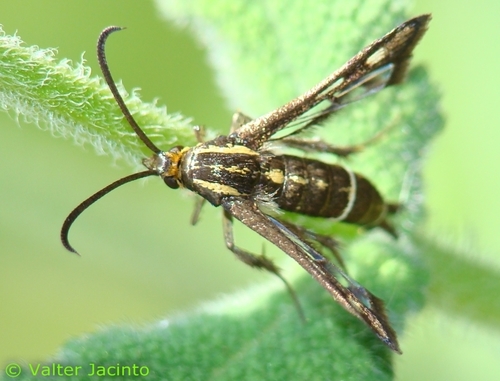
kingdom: Animalia
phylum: Arthropoda
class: Insecta
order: Lepidoptera
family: Sesiidae
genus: Chamaesphecia
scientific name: Chamaesphecia aerifrons
